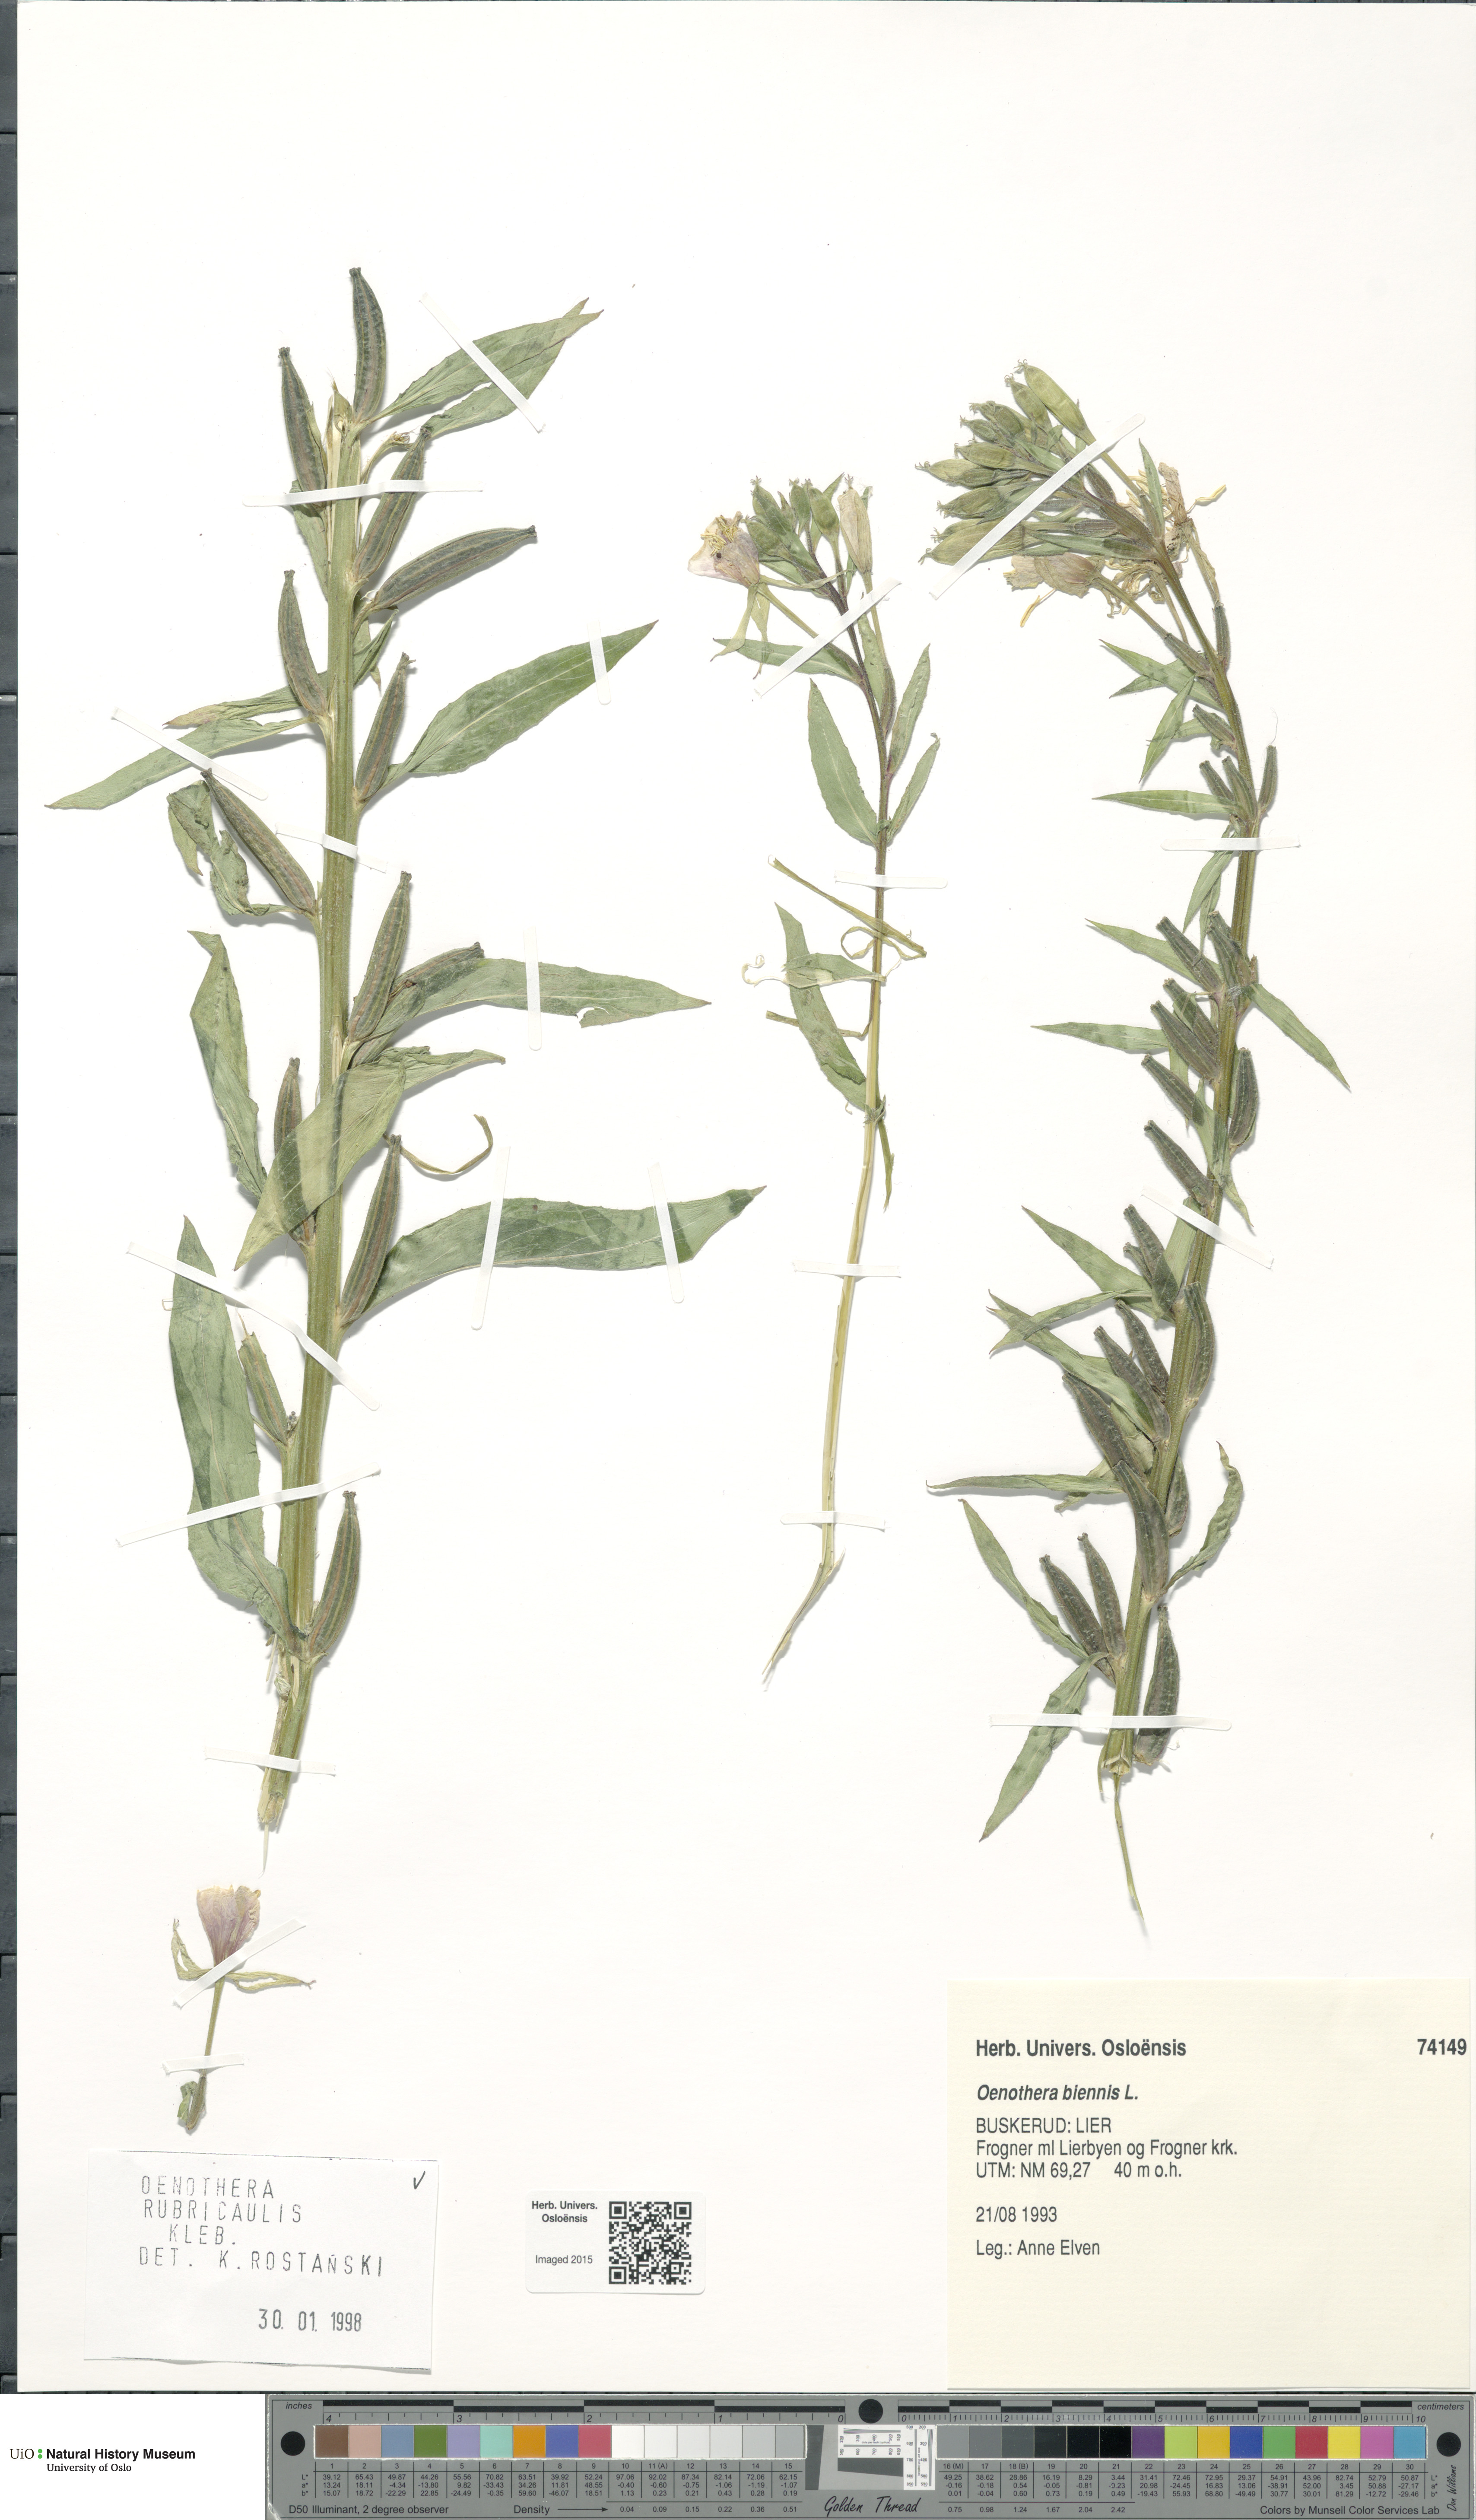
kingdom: Plantae
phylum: Tracheophyta
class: Magnoliopsida
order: Myrtales
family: Onagraceae
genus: Oenothera
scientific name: Oenothera biennis
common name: Common evening-primrose
